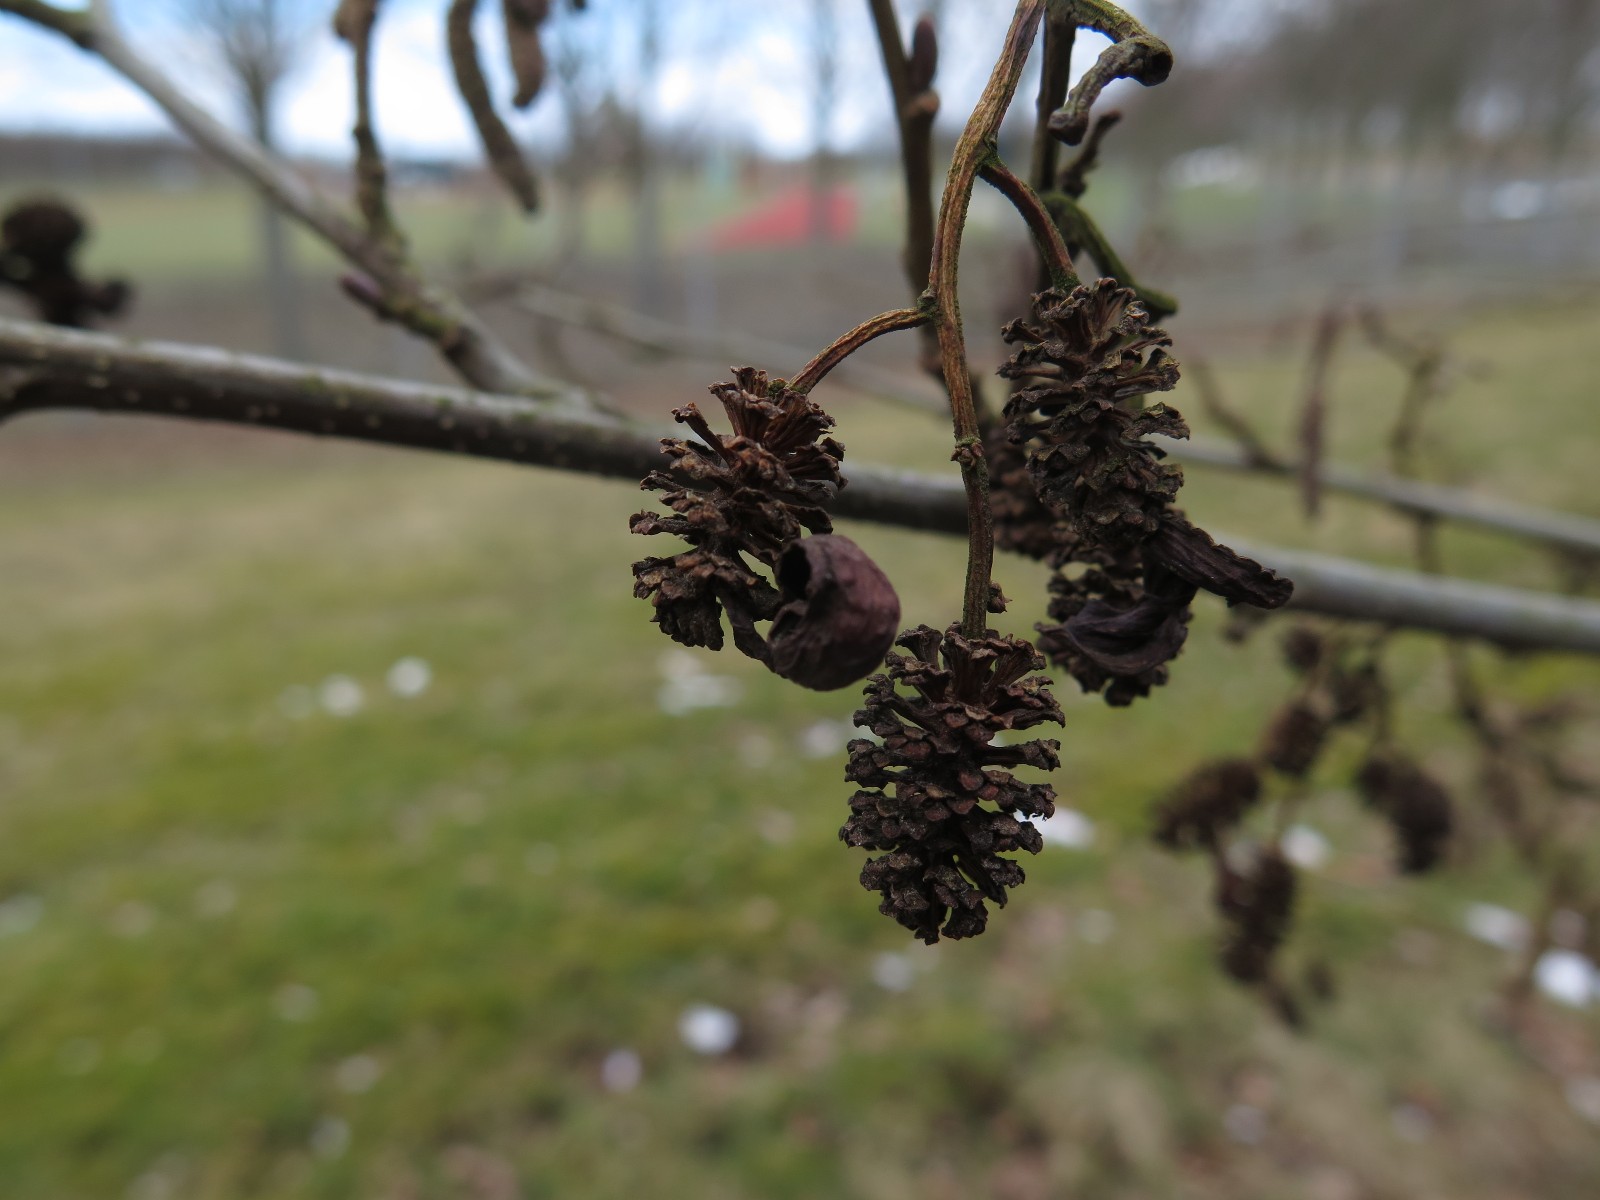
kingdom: Fungi
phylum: Ascomycota
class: Taphrinomycetes
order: Taphrinales
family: Taphrinaceae
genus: Taphrina
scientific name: Taphrina alni
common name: Alder tongue
